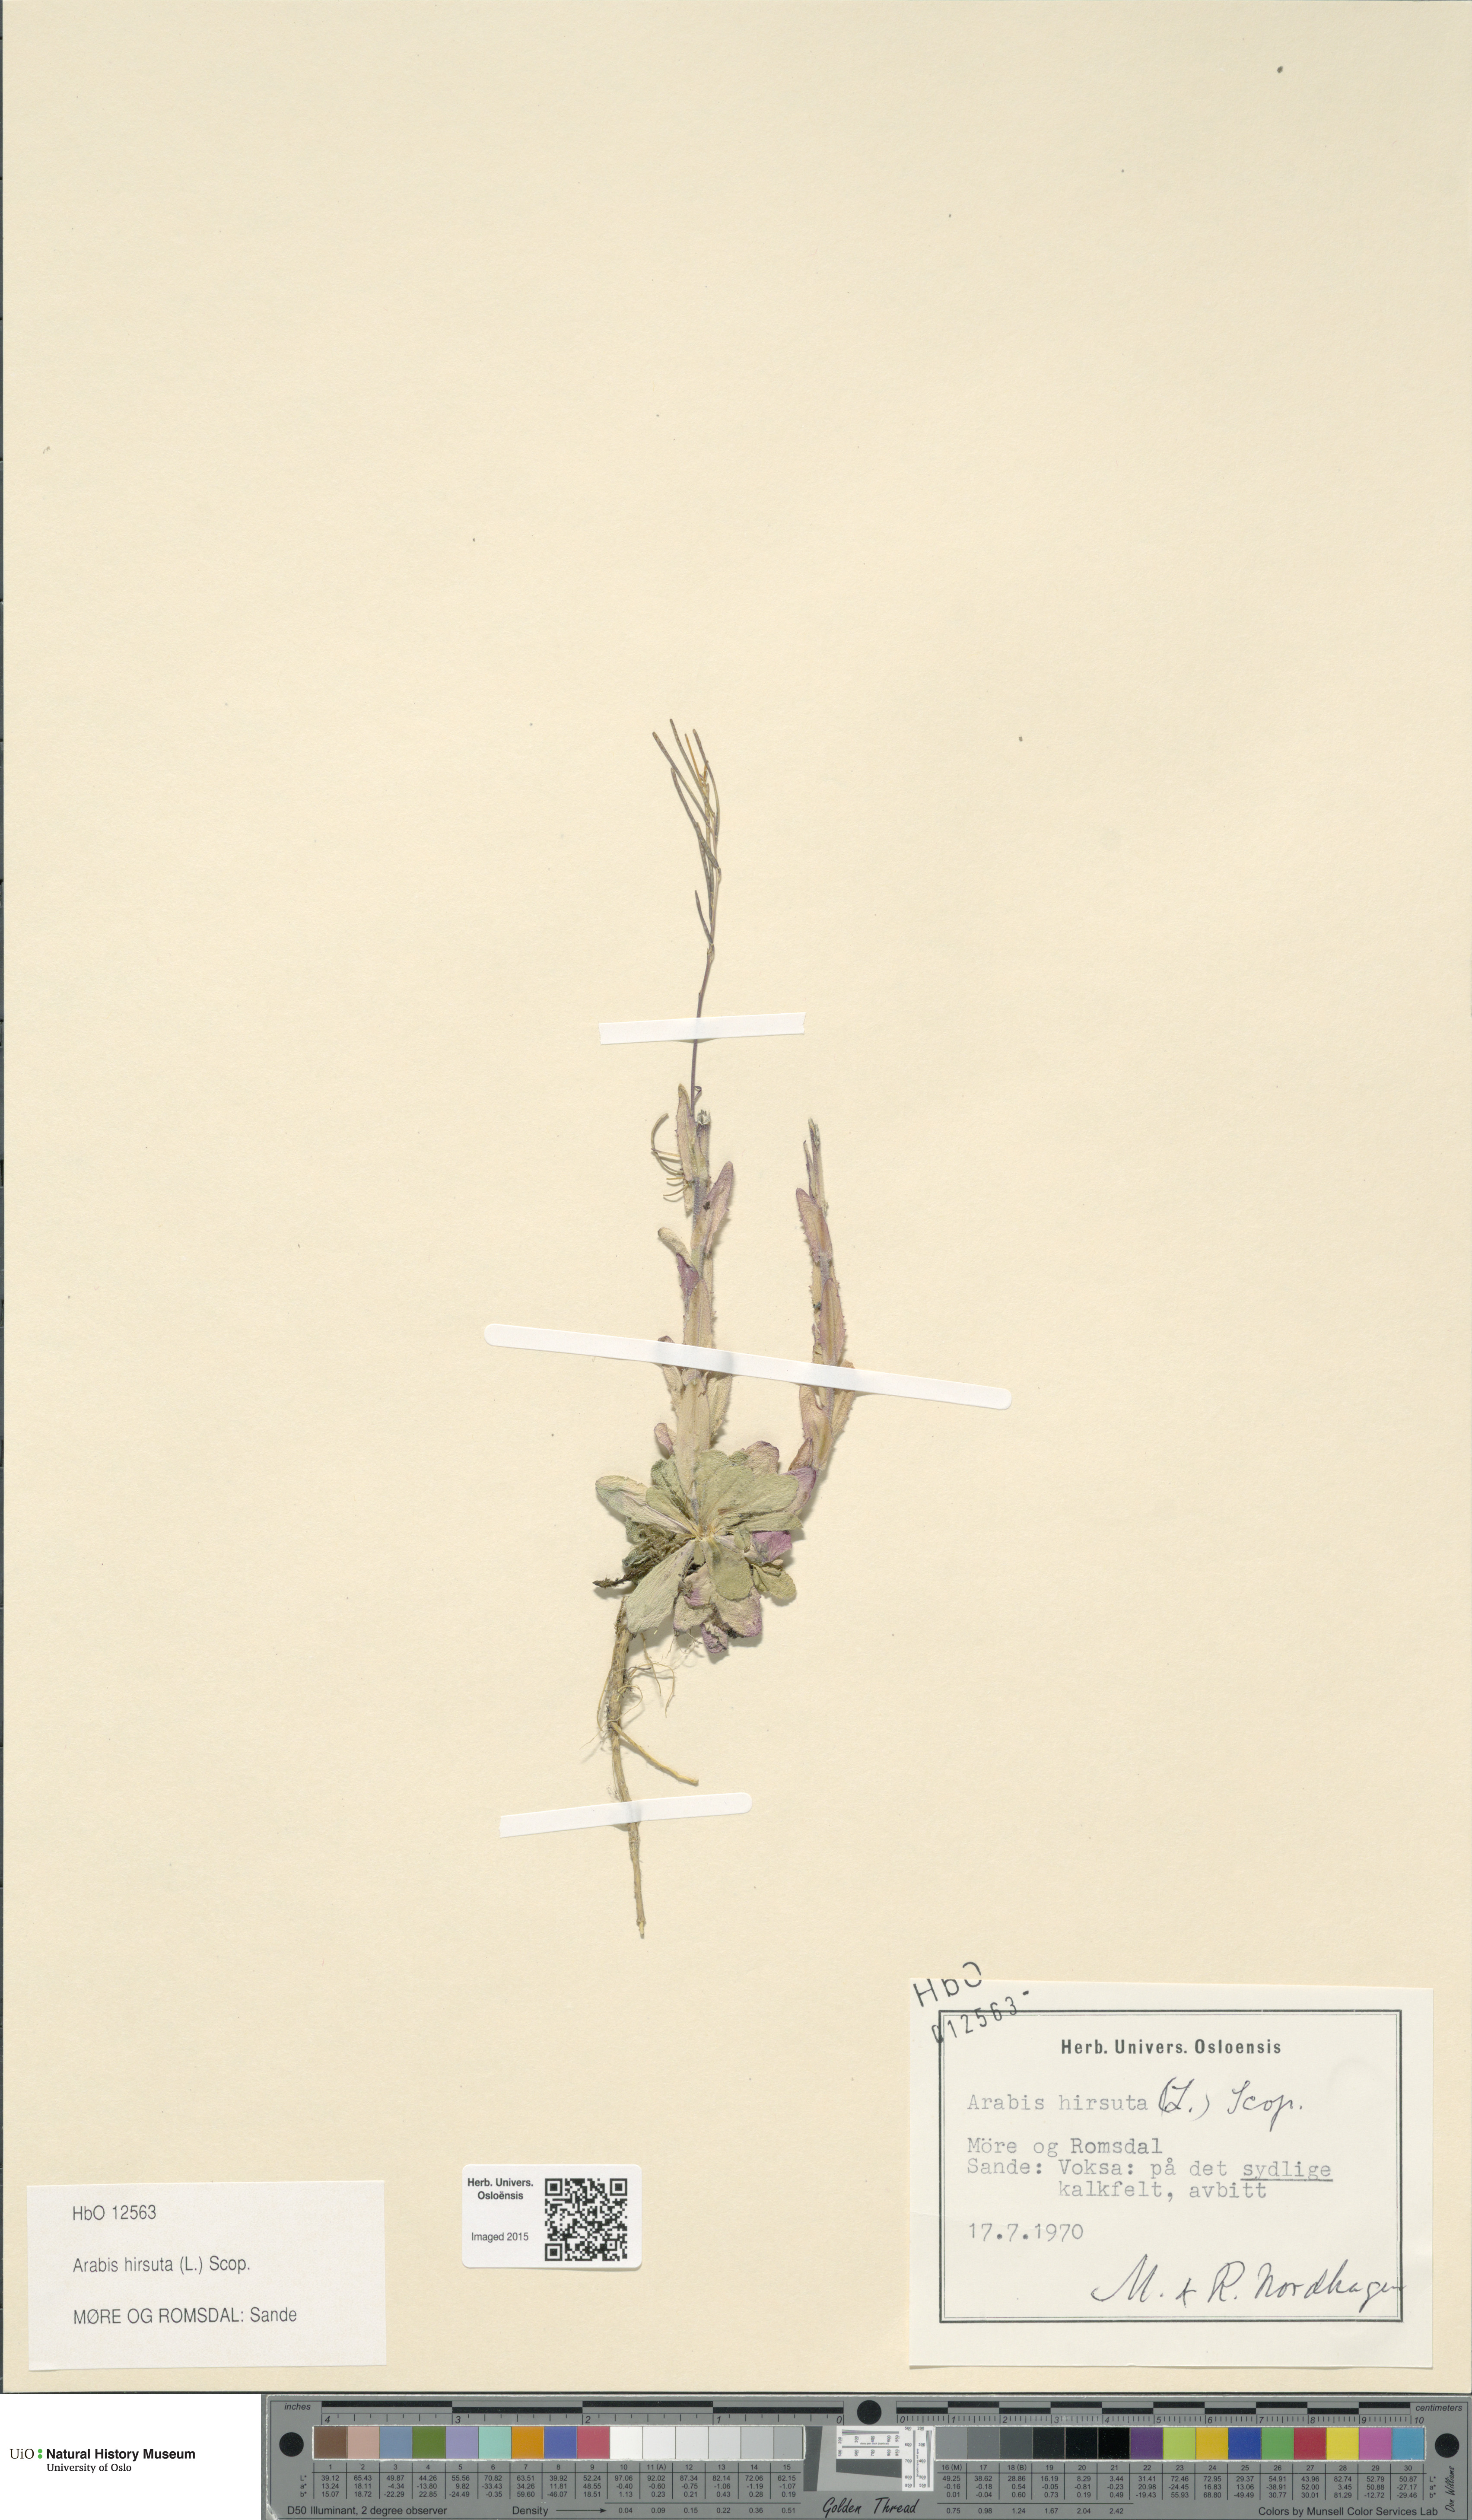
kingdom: Plantae
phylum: Tracheophyta
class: Magnoliopsida
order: Brassicales
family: Brassicaceae
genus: Arabis
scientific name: Arabis hirsuta
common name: Hairy rock-cress
